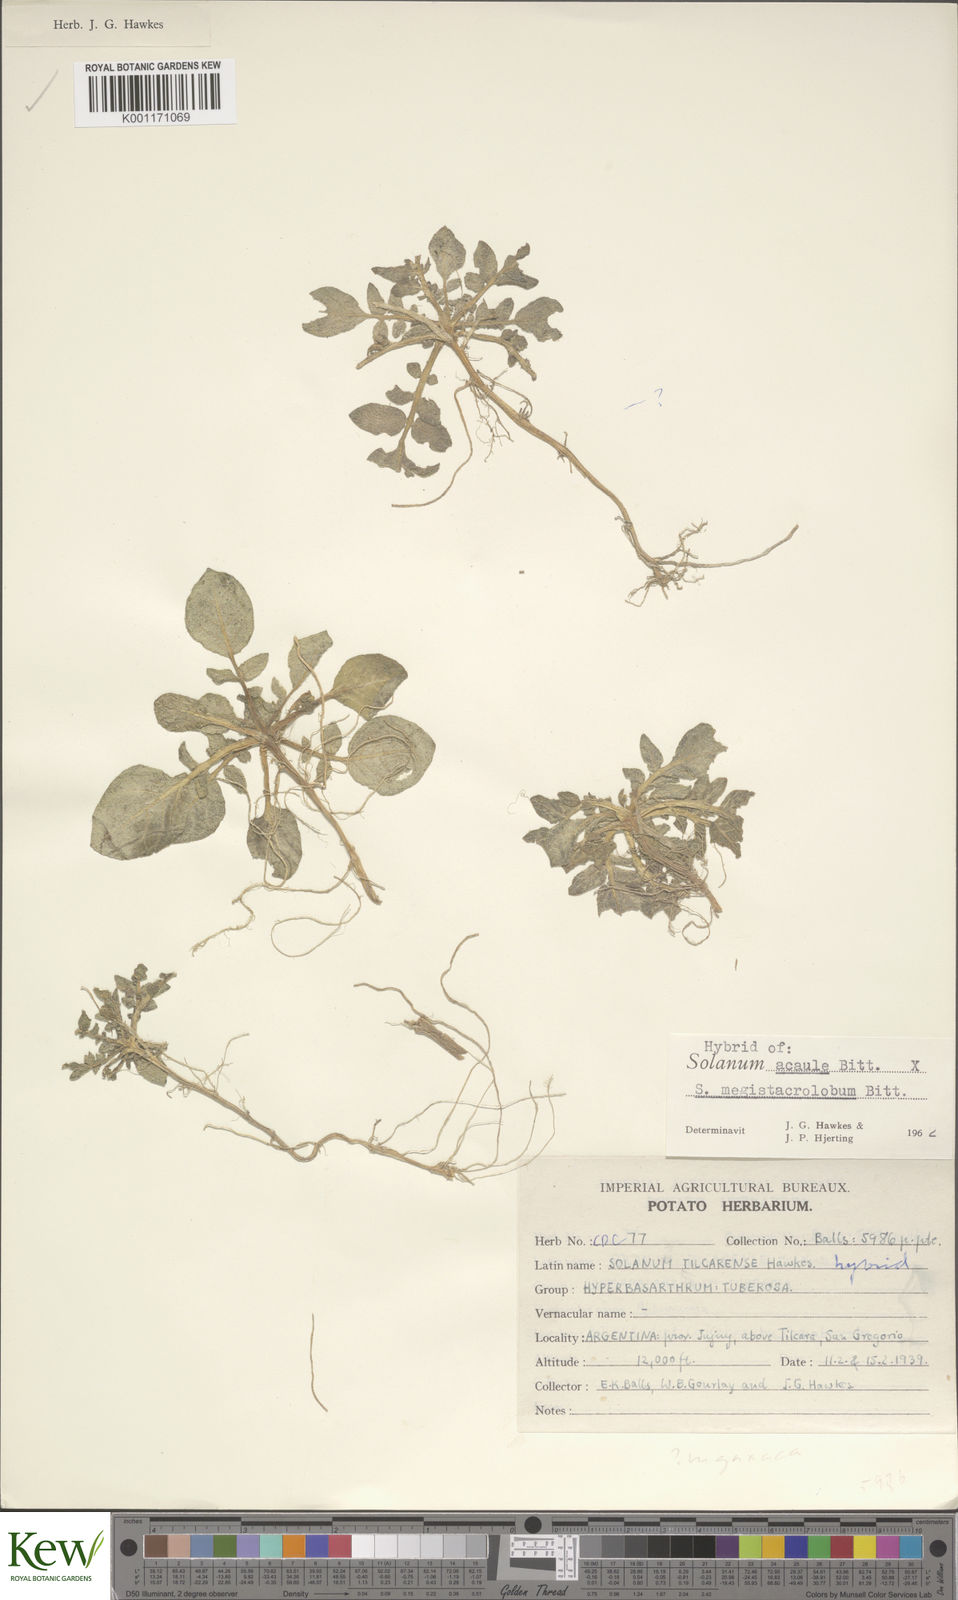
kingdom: Plantae
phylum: Tracheophyta
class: Magnoliopsida
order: Solanales
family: Solanaceae
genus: Solanum
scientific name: Solanum acaule
